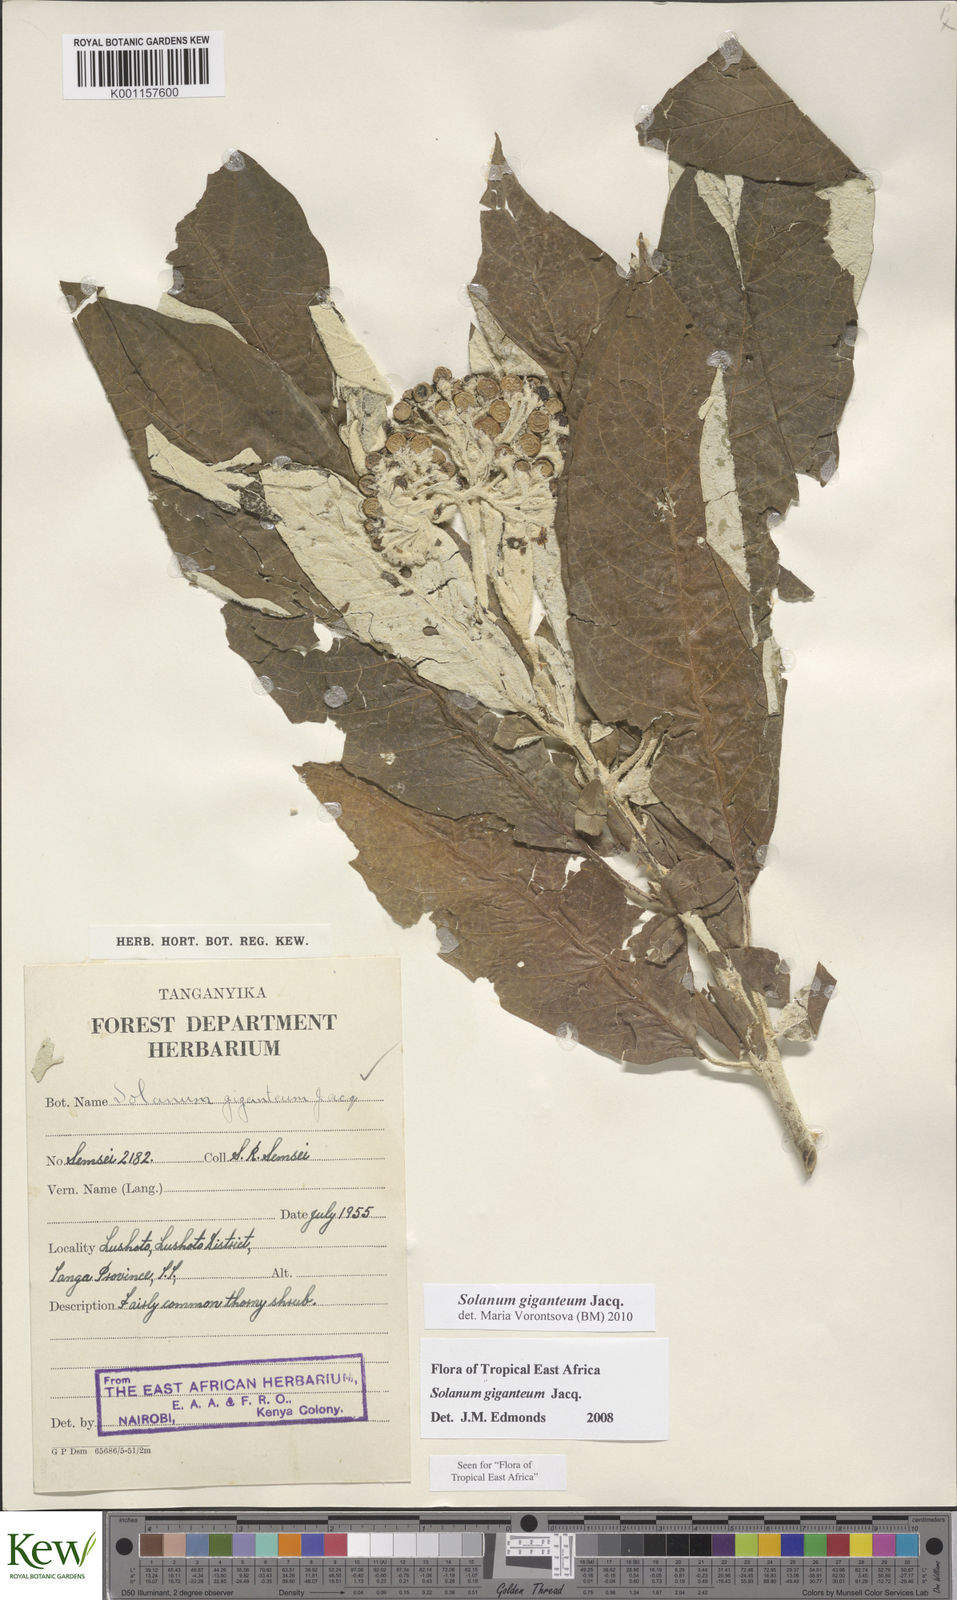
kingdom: Plantae
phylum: Tracheophyta
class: Magnoliopsida
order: Solanales
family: Solanaceae
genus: Solanum
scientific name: Solanum giganteum
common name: Healing-leaf-tree
